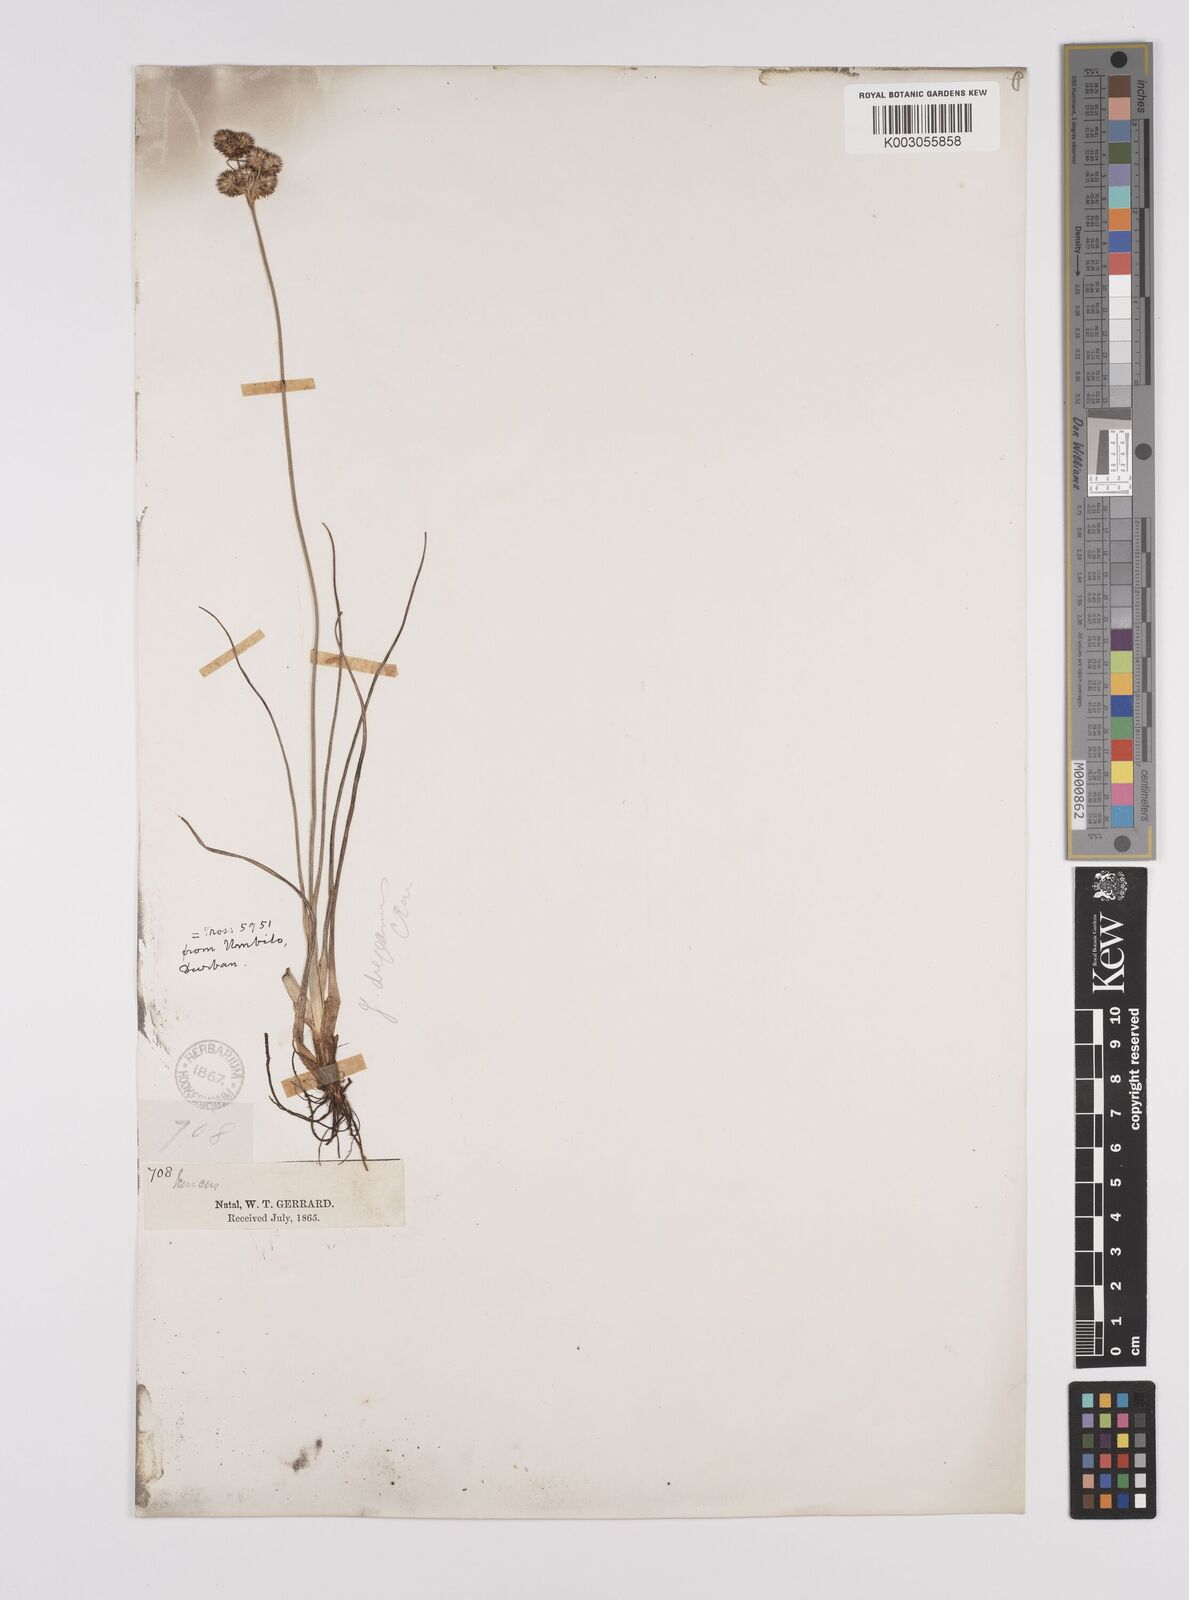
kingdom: Plantae
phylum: Tracheophyta
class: Liliopsida
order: Poales
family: Juncaceae
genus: Juncus
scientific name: Juncus dregeanus
